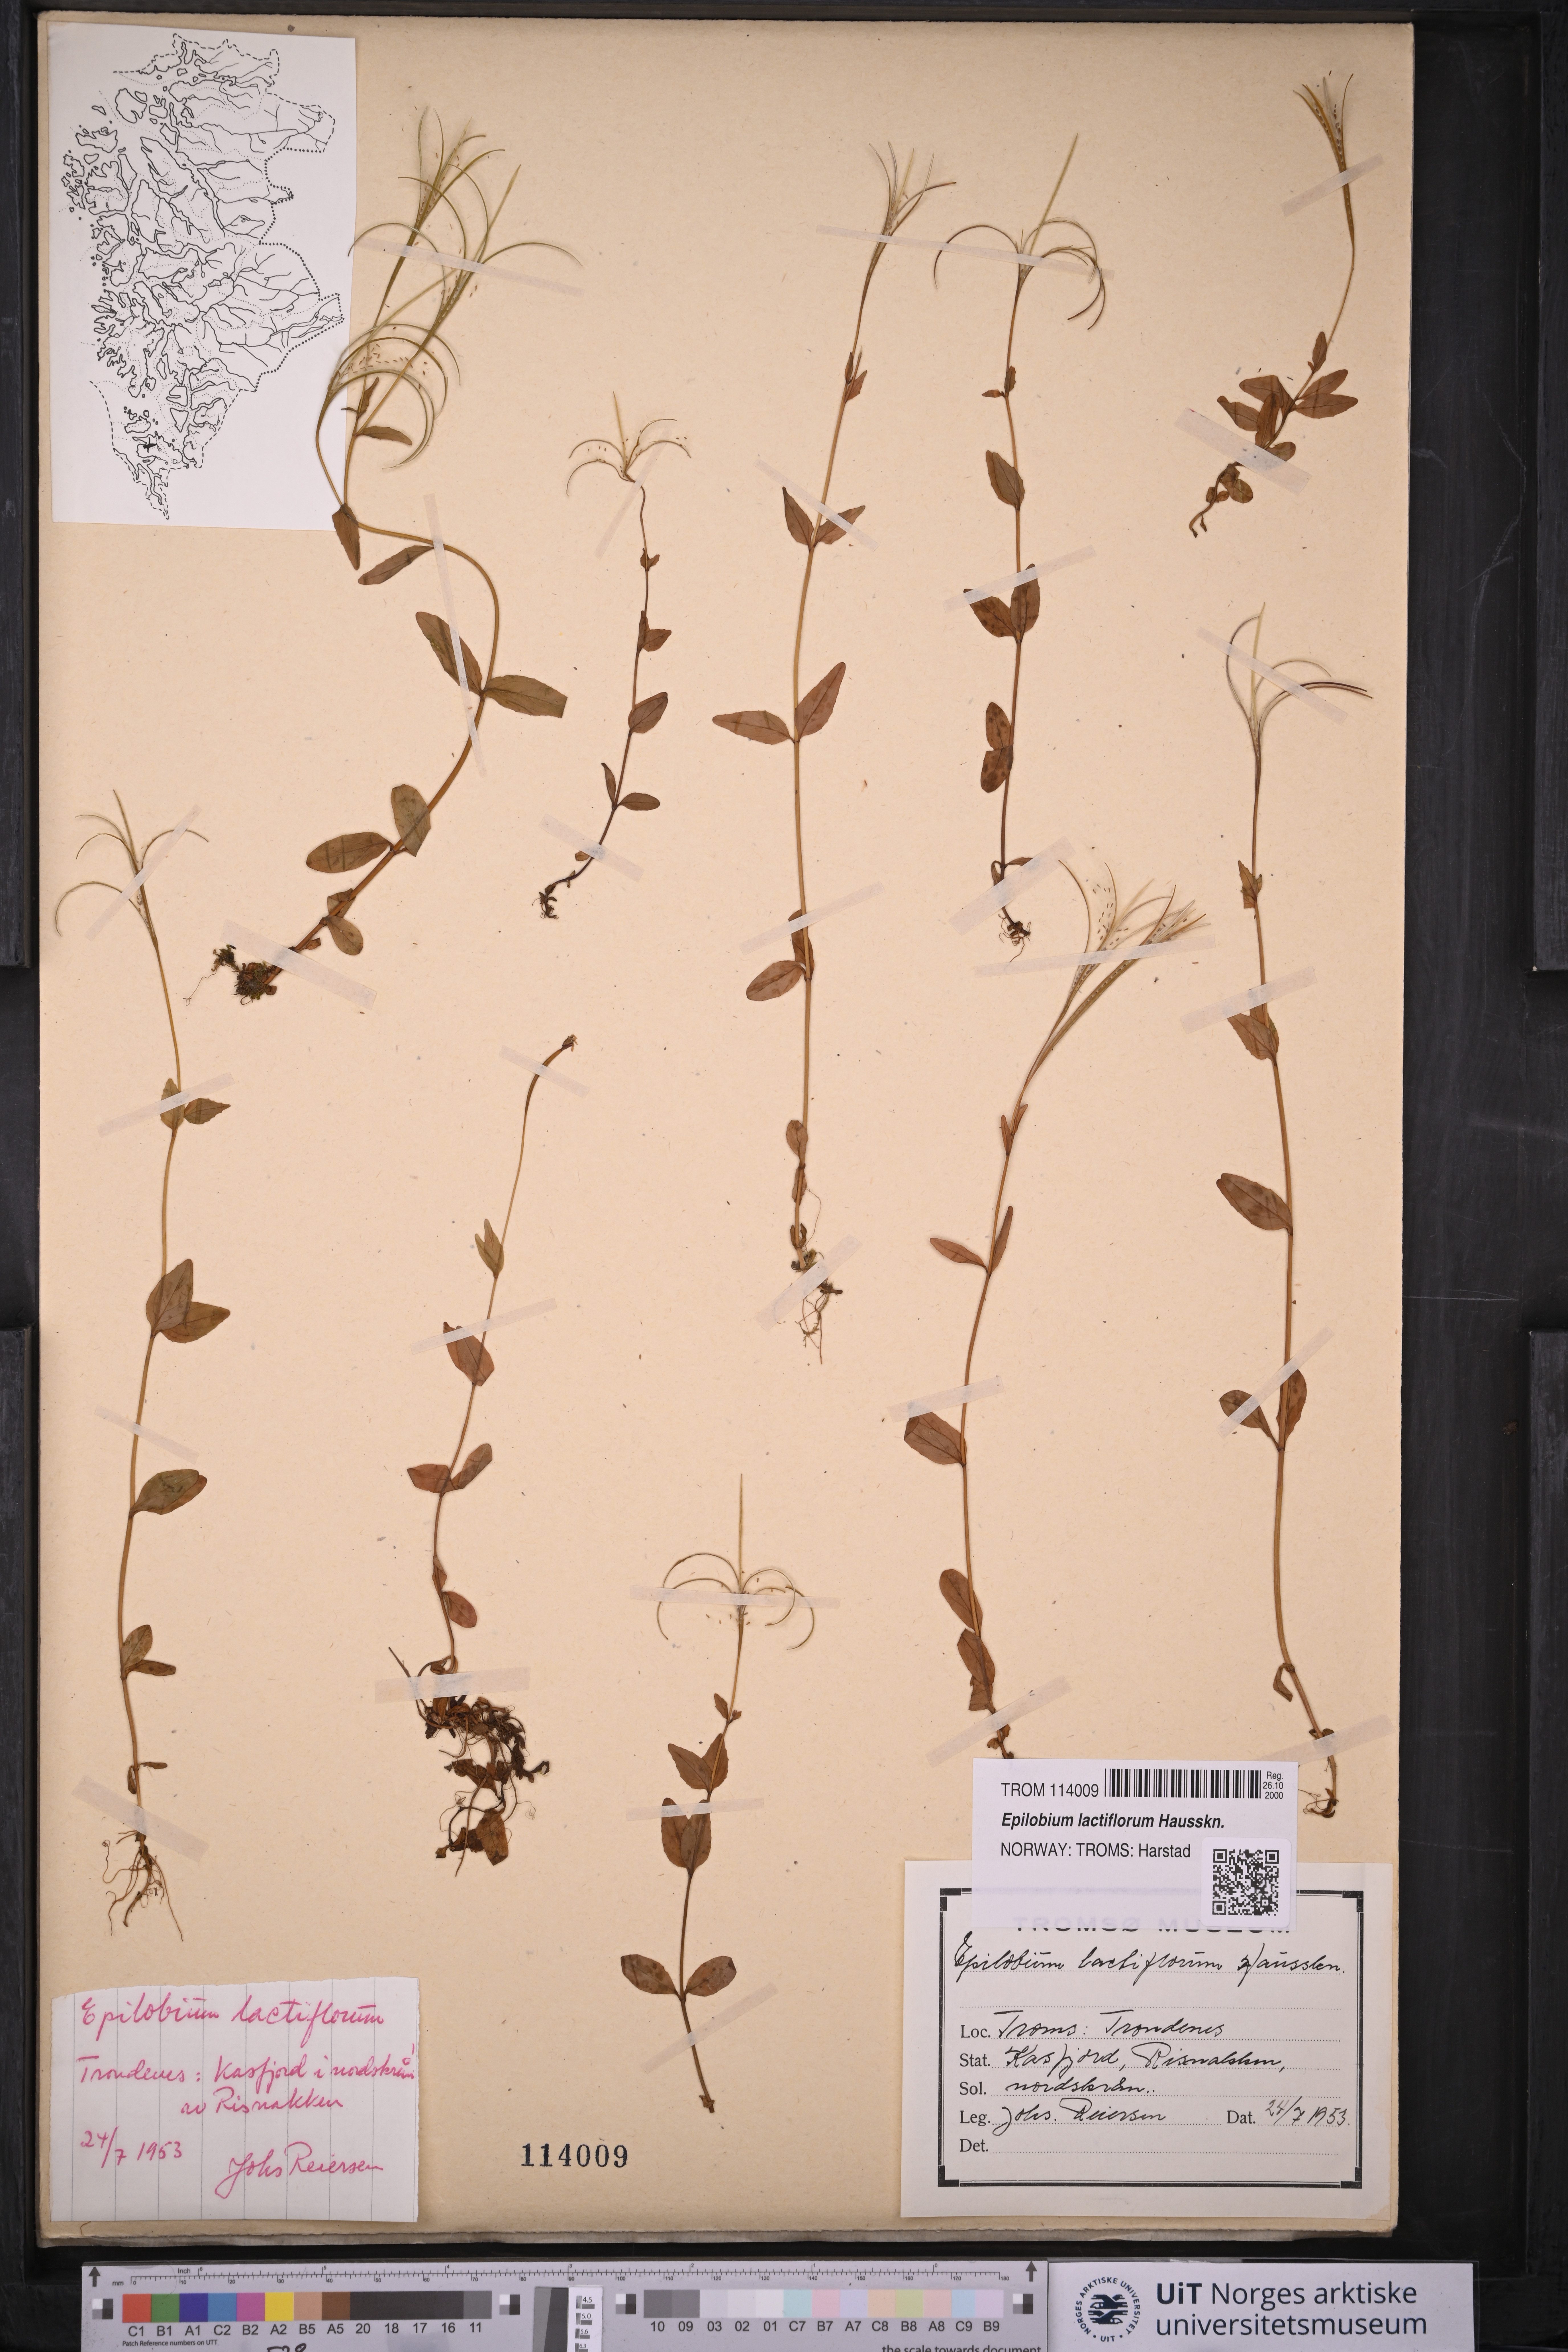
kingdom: Plantae
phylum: Tracheophyta
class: Magnoliopsida
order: Myrtales
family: Onagraceae
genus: Epilobium
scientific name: Epilobium lactiflorum
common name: Milkflower willowherb
